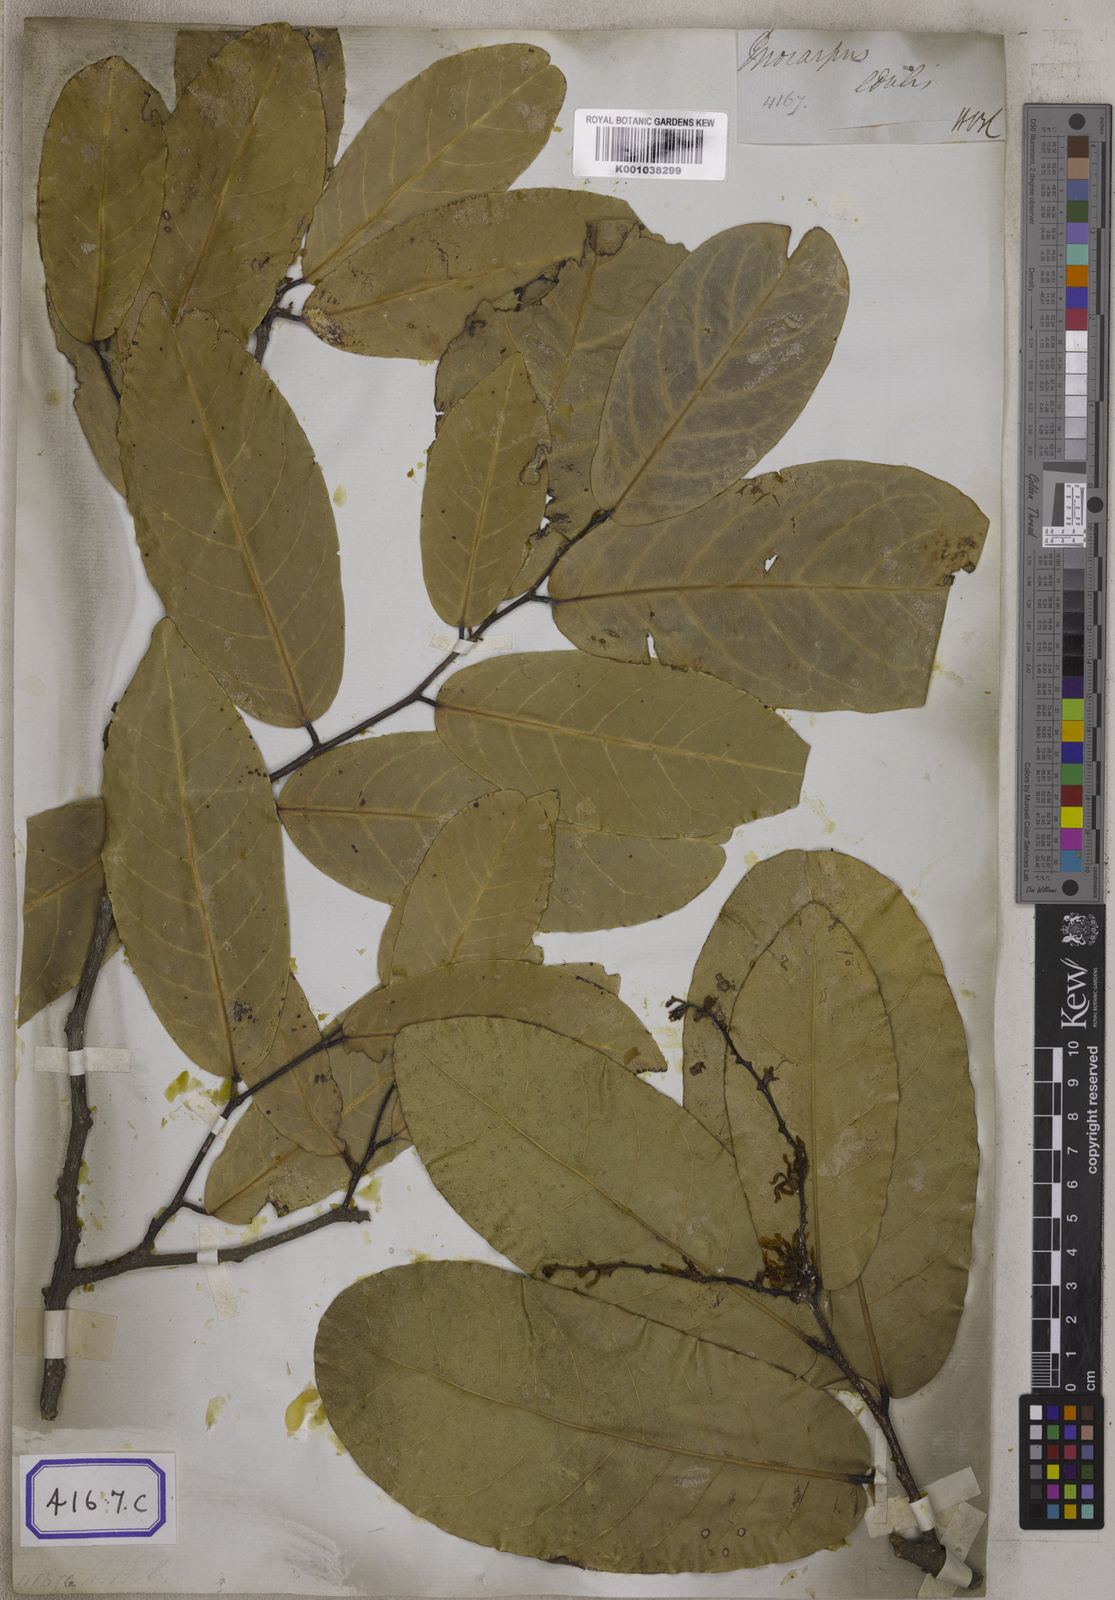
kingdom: Plantae
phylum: Tracheophyta
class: Magnoliopsida
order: Fabales
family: Fabaceae
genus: Inocarpus
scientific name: Inocarpus fagifer
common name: Polynesian chestnut
